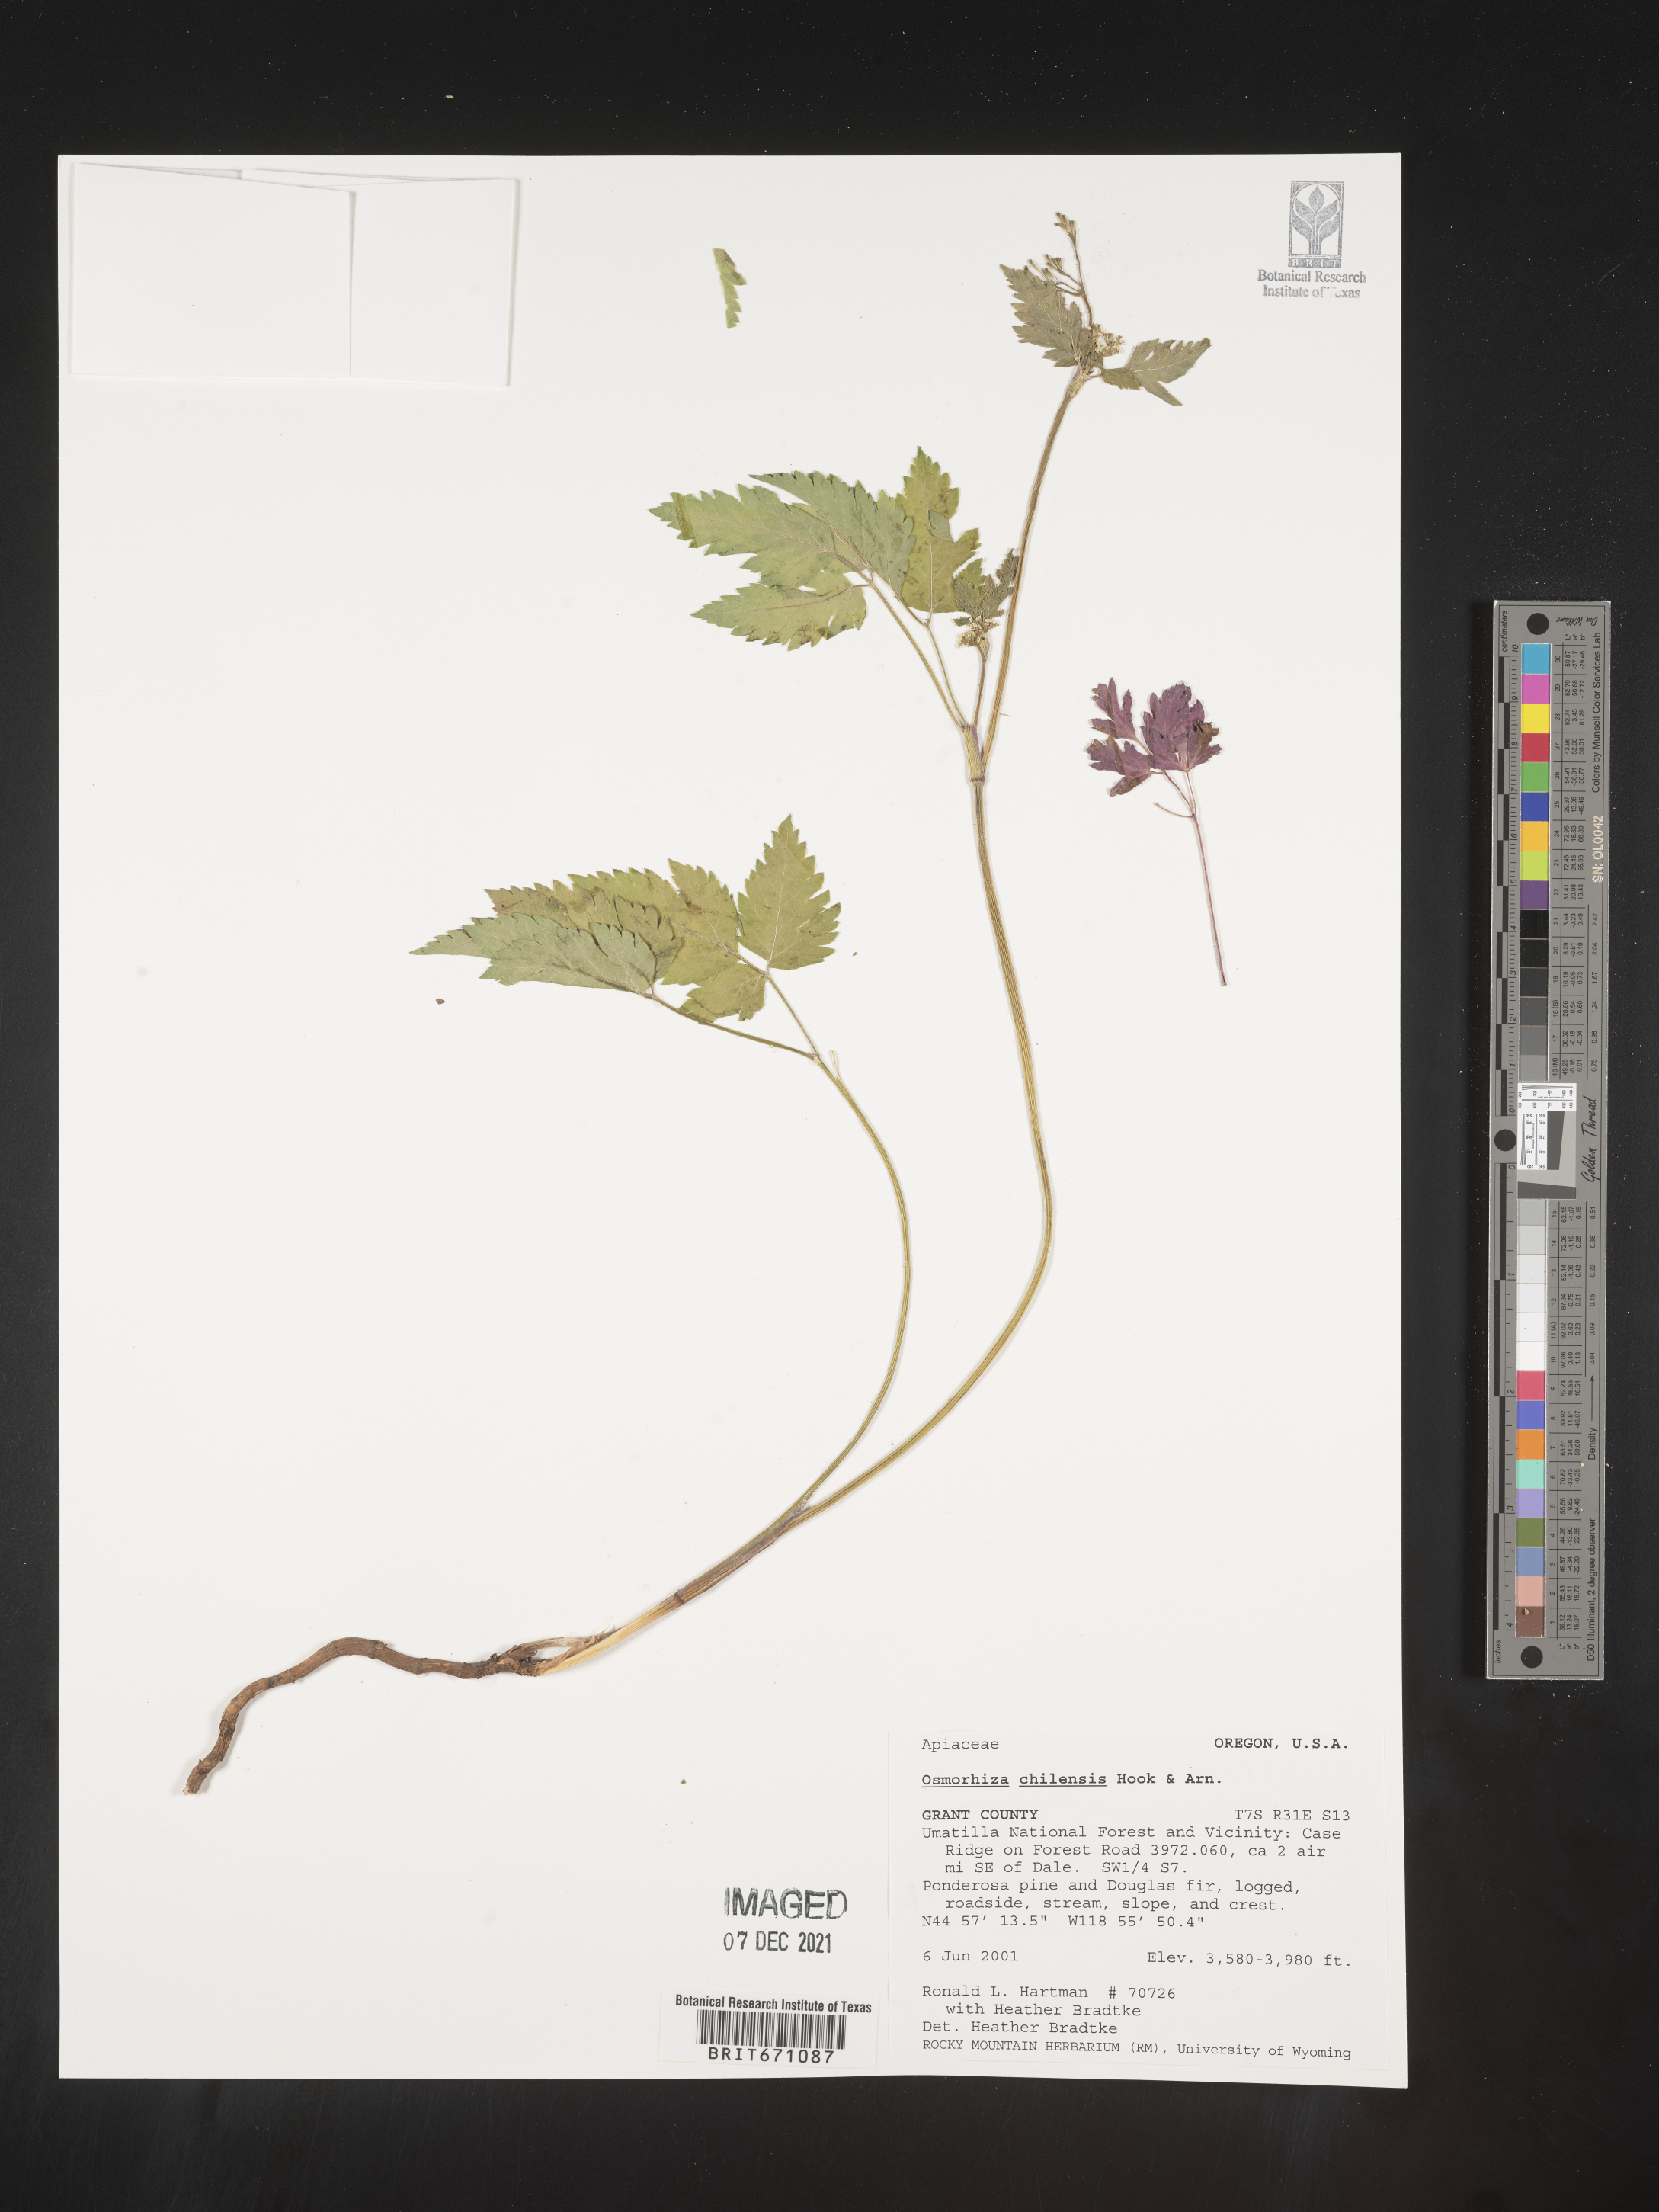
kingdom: Plantae
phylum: Tracheophyta
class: Magnoliopsida
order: Apiales
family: Apiaceae
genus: Osmorhiza
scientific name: Osmorhiza berteroi
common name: Mountain sweet cicely
